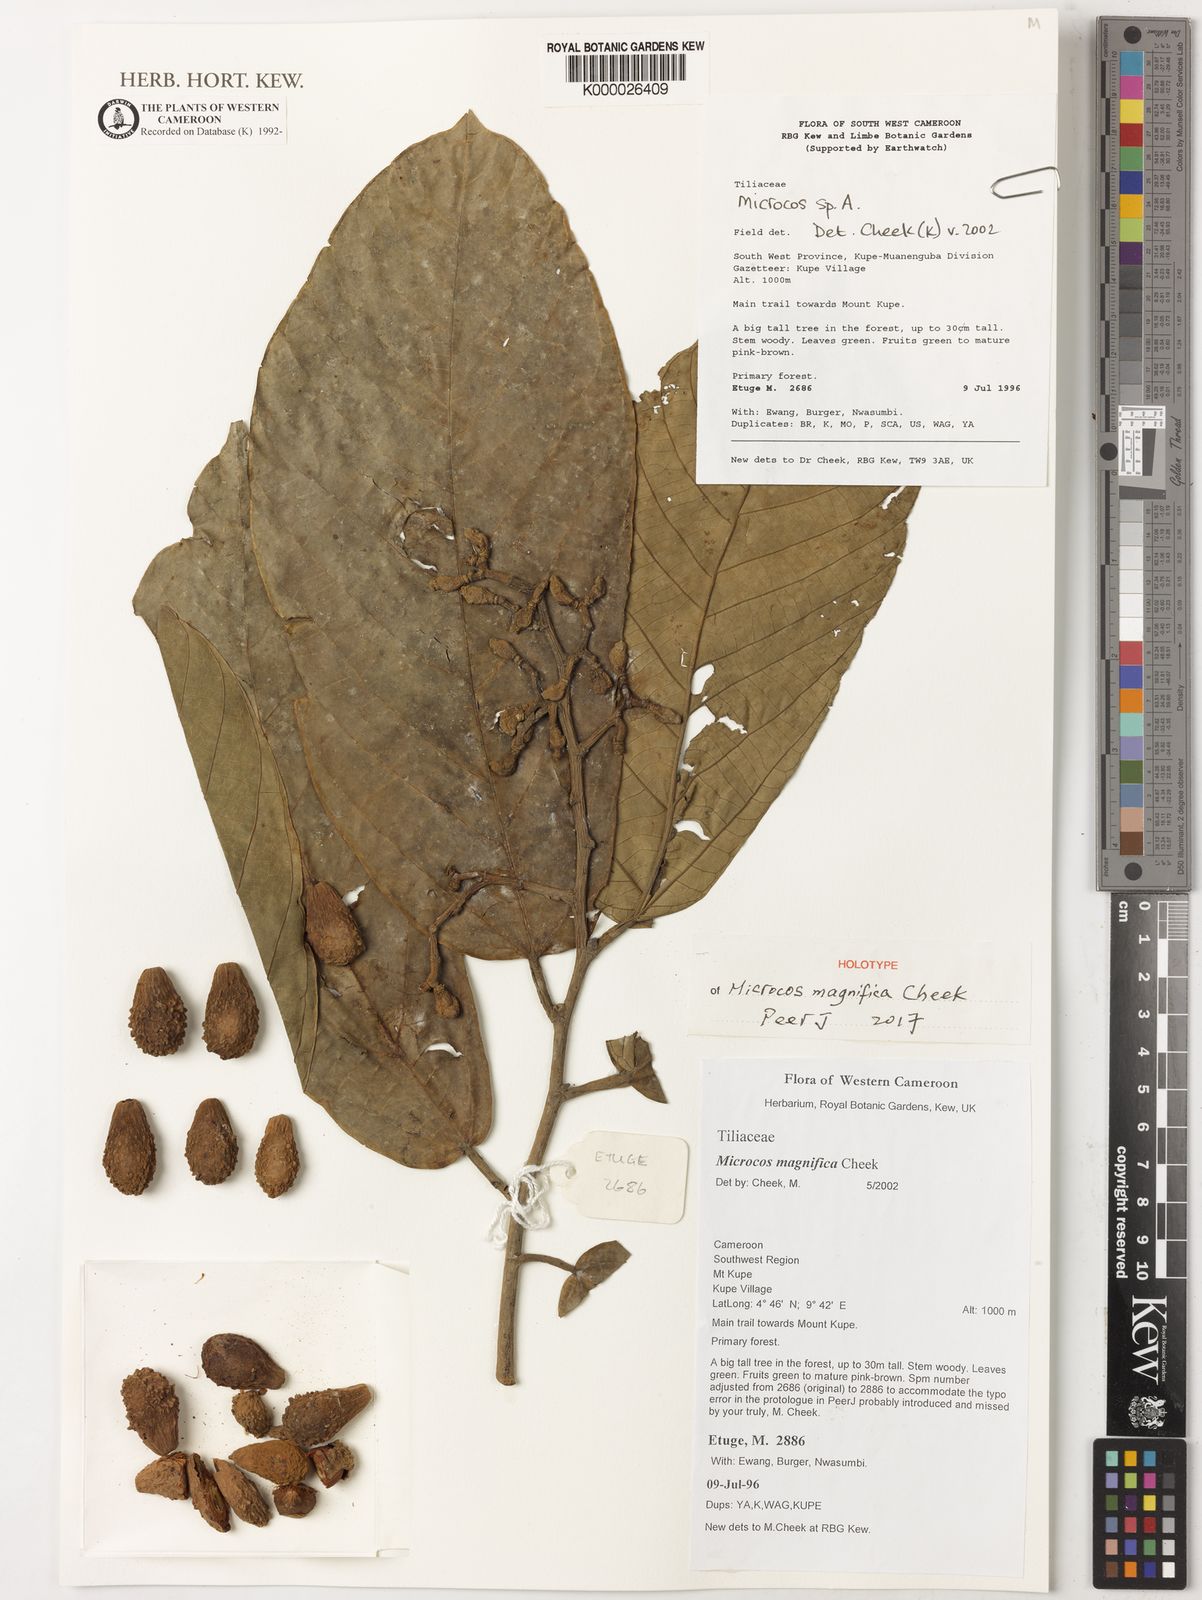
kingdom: Plantae
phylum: Tracheophyta
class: Magnoliopsida
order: Malvales
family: Malvaceae
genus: Microcos
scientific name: Microcos magnifica
